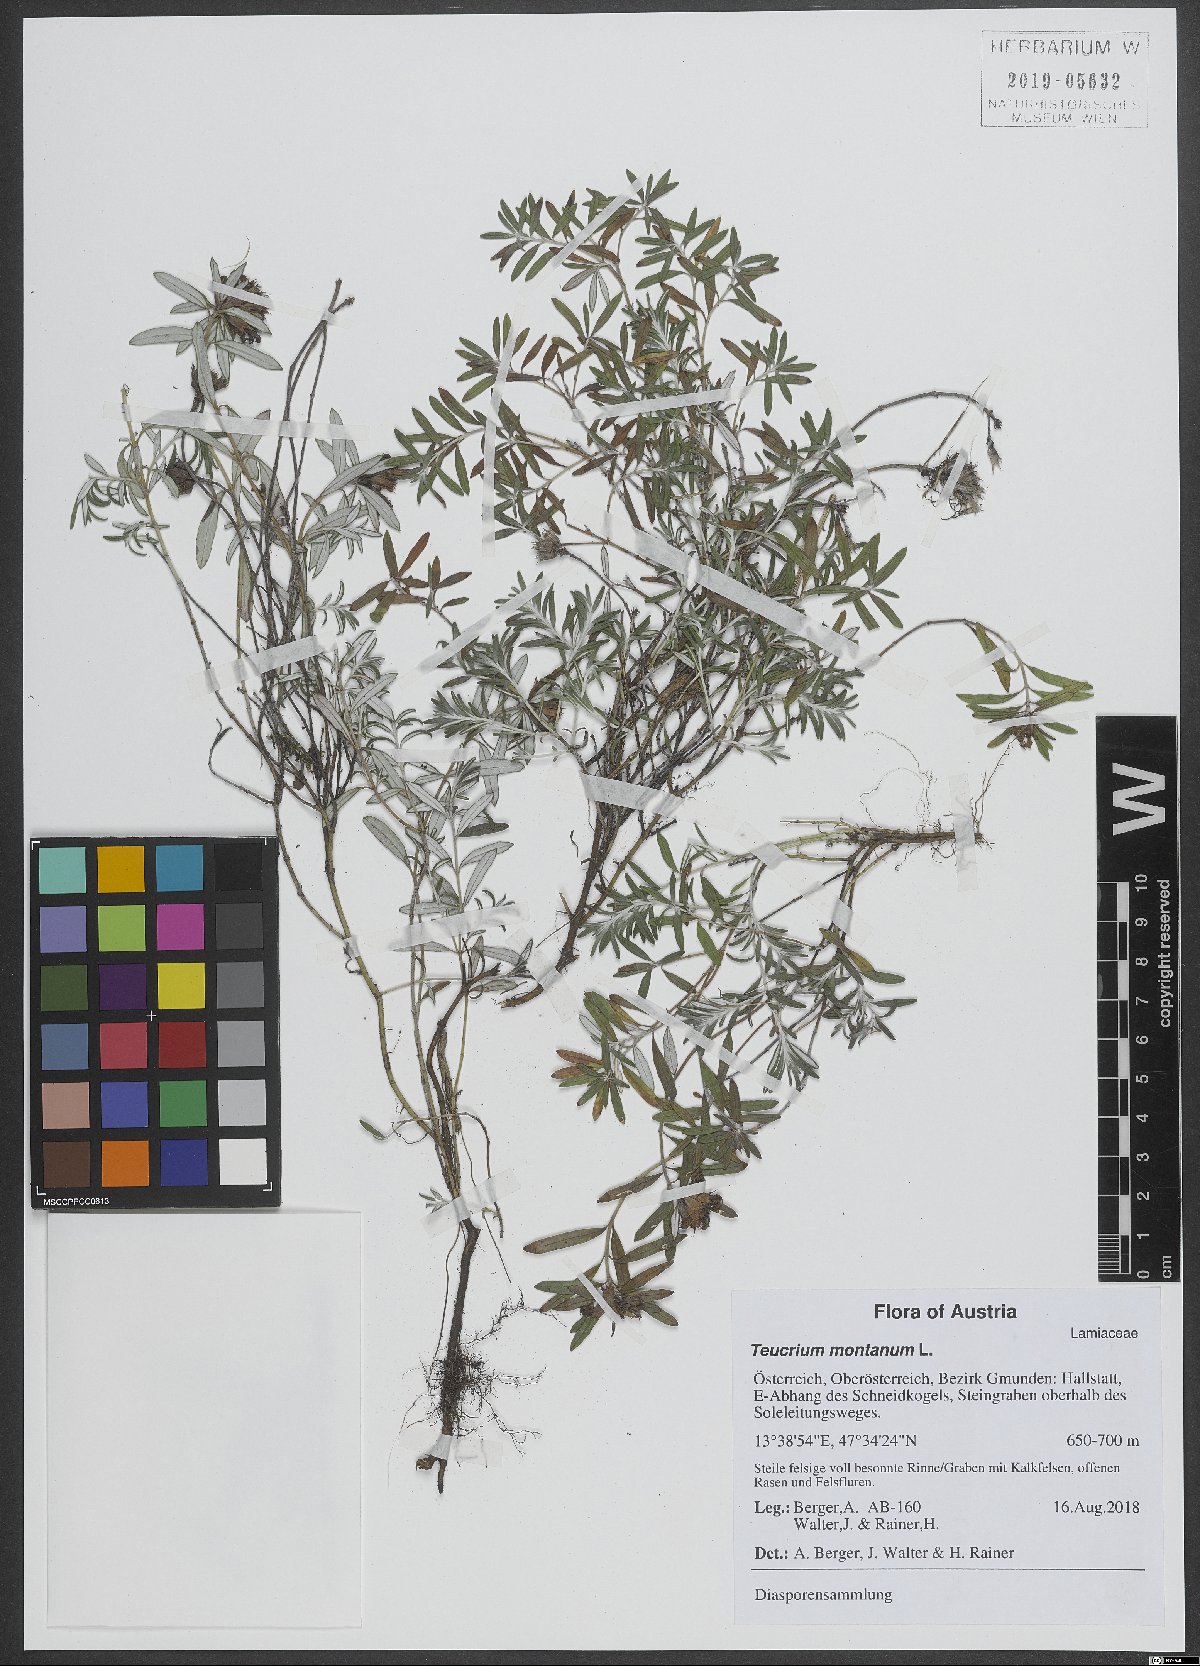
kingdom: Plantae
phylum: Tracheophyta
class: Magnoliopsida
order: Lamiales
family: Lamiaceae
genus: Teucrium
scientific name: Teucrium montanum
